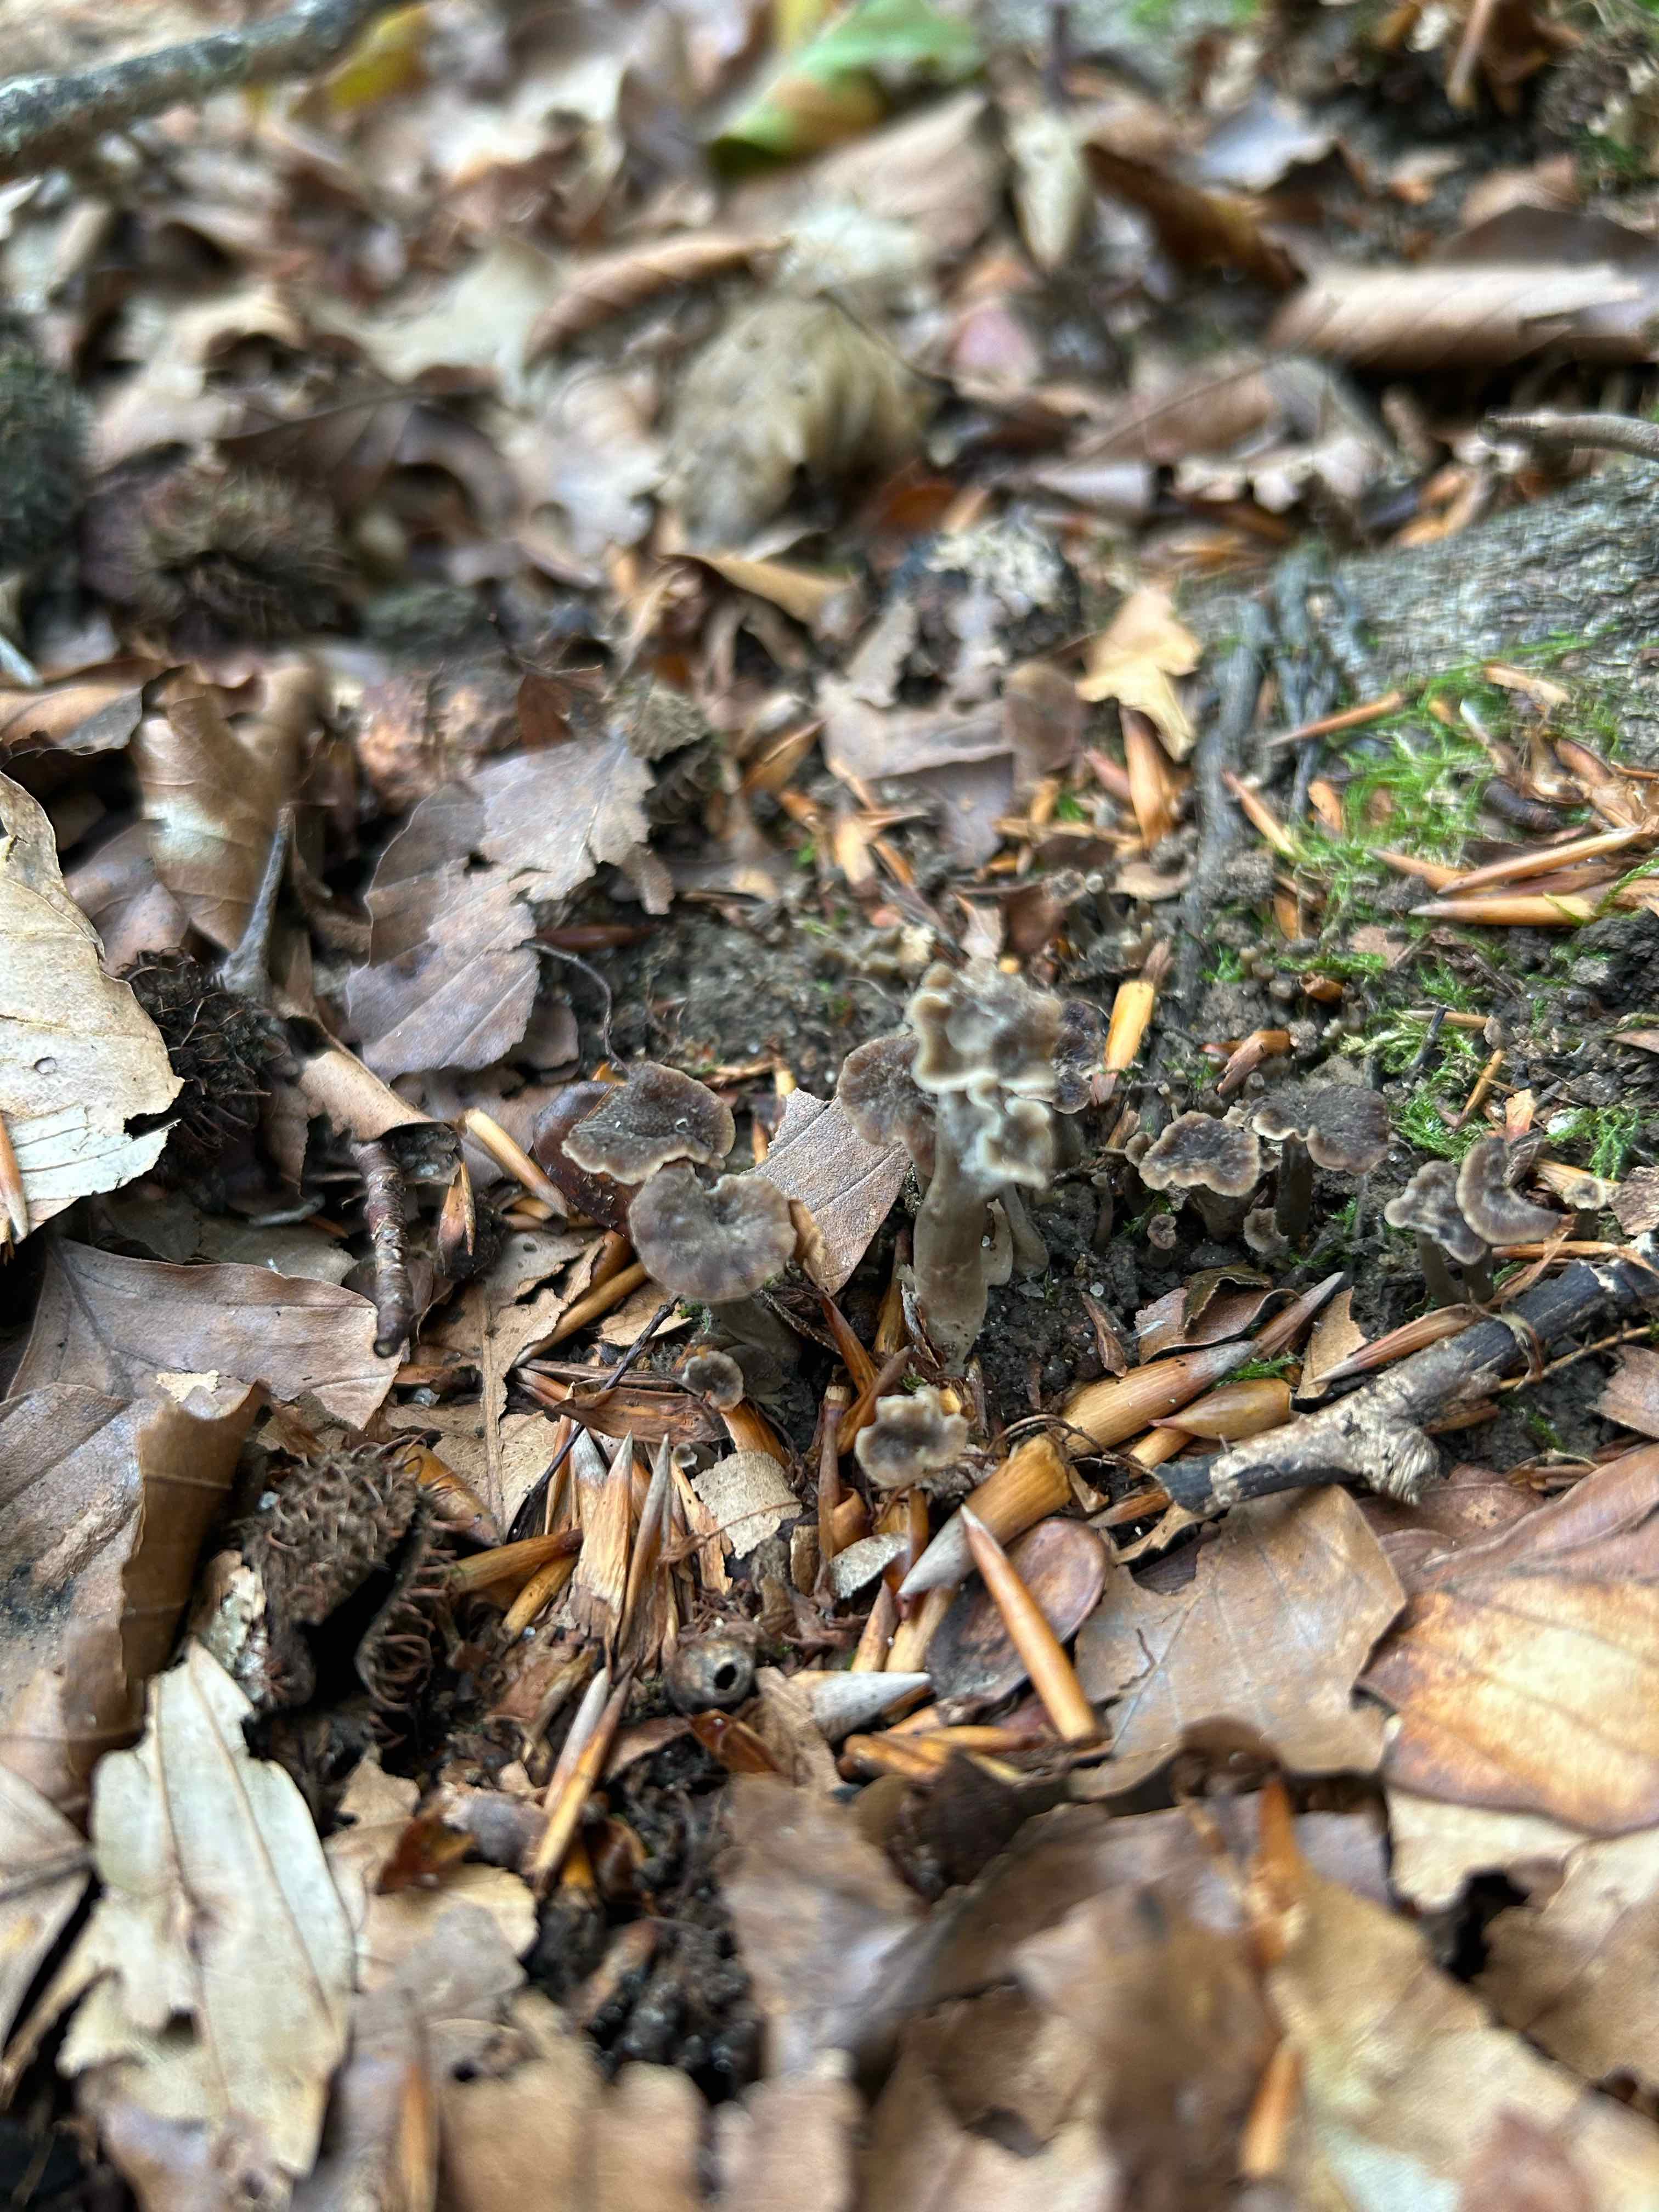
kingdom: Fungi
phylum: Basidiomycota
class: Agaricomycetes
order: Cantharellales
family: Hydnaceae
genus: Craterellus
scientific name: Craterellus undulatus
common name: liden kantarel
